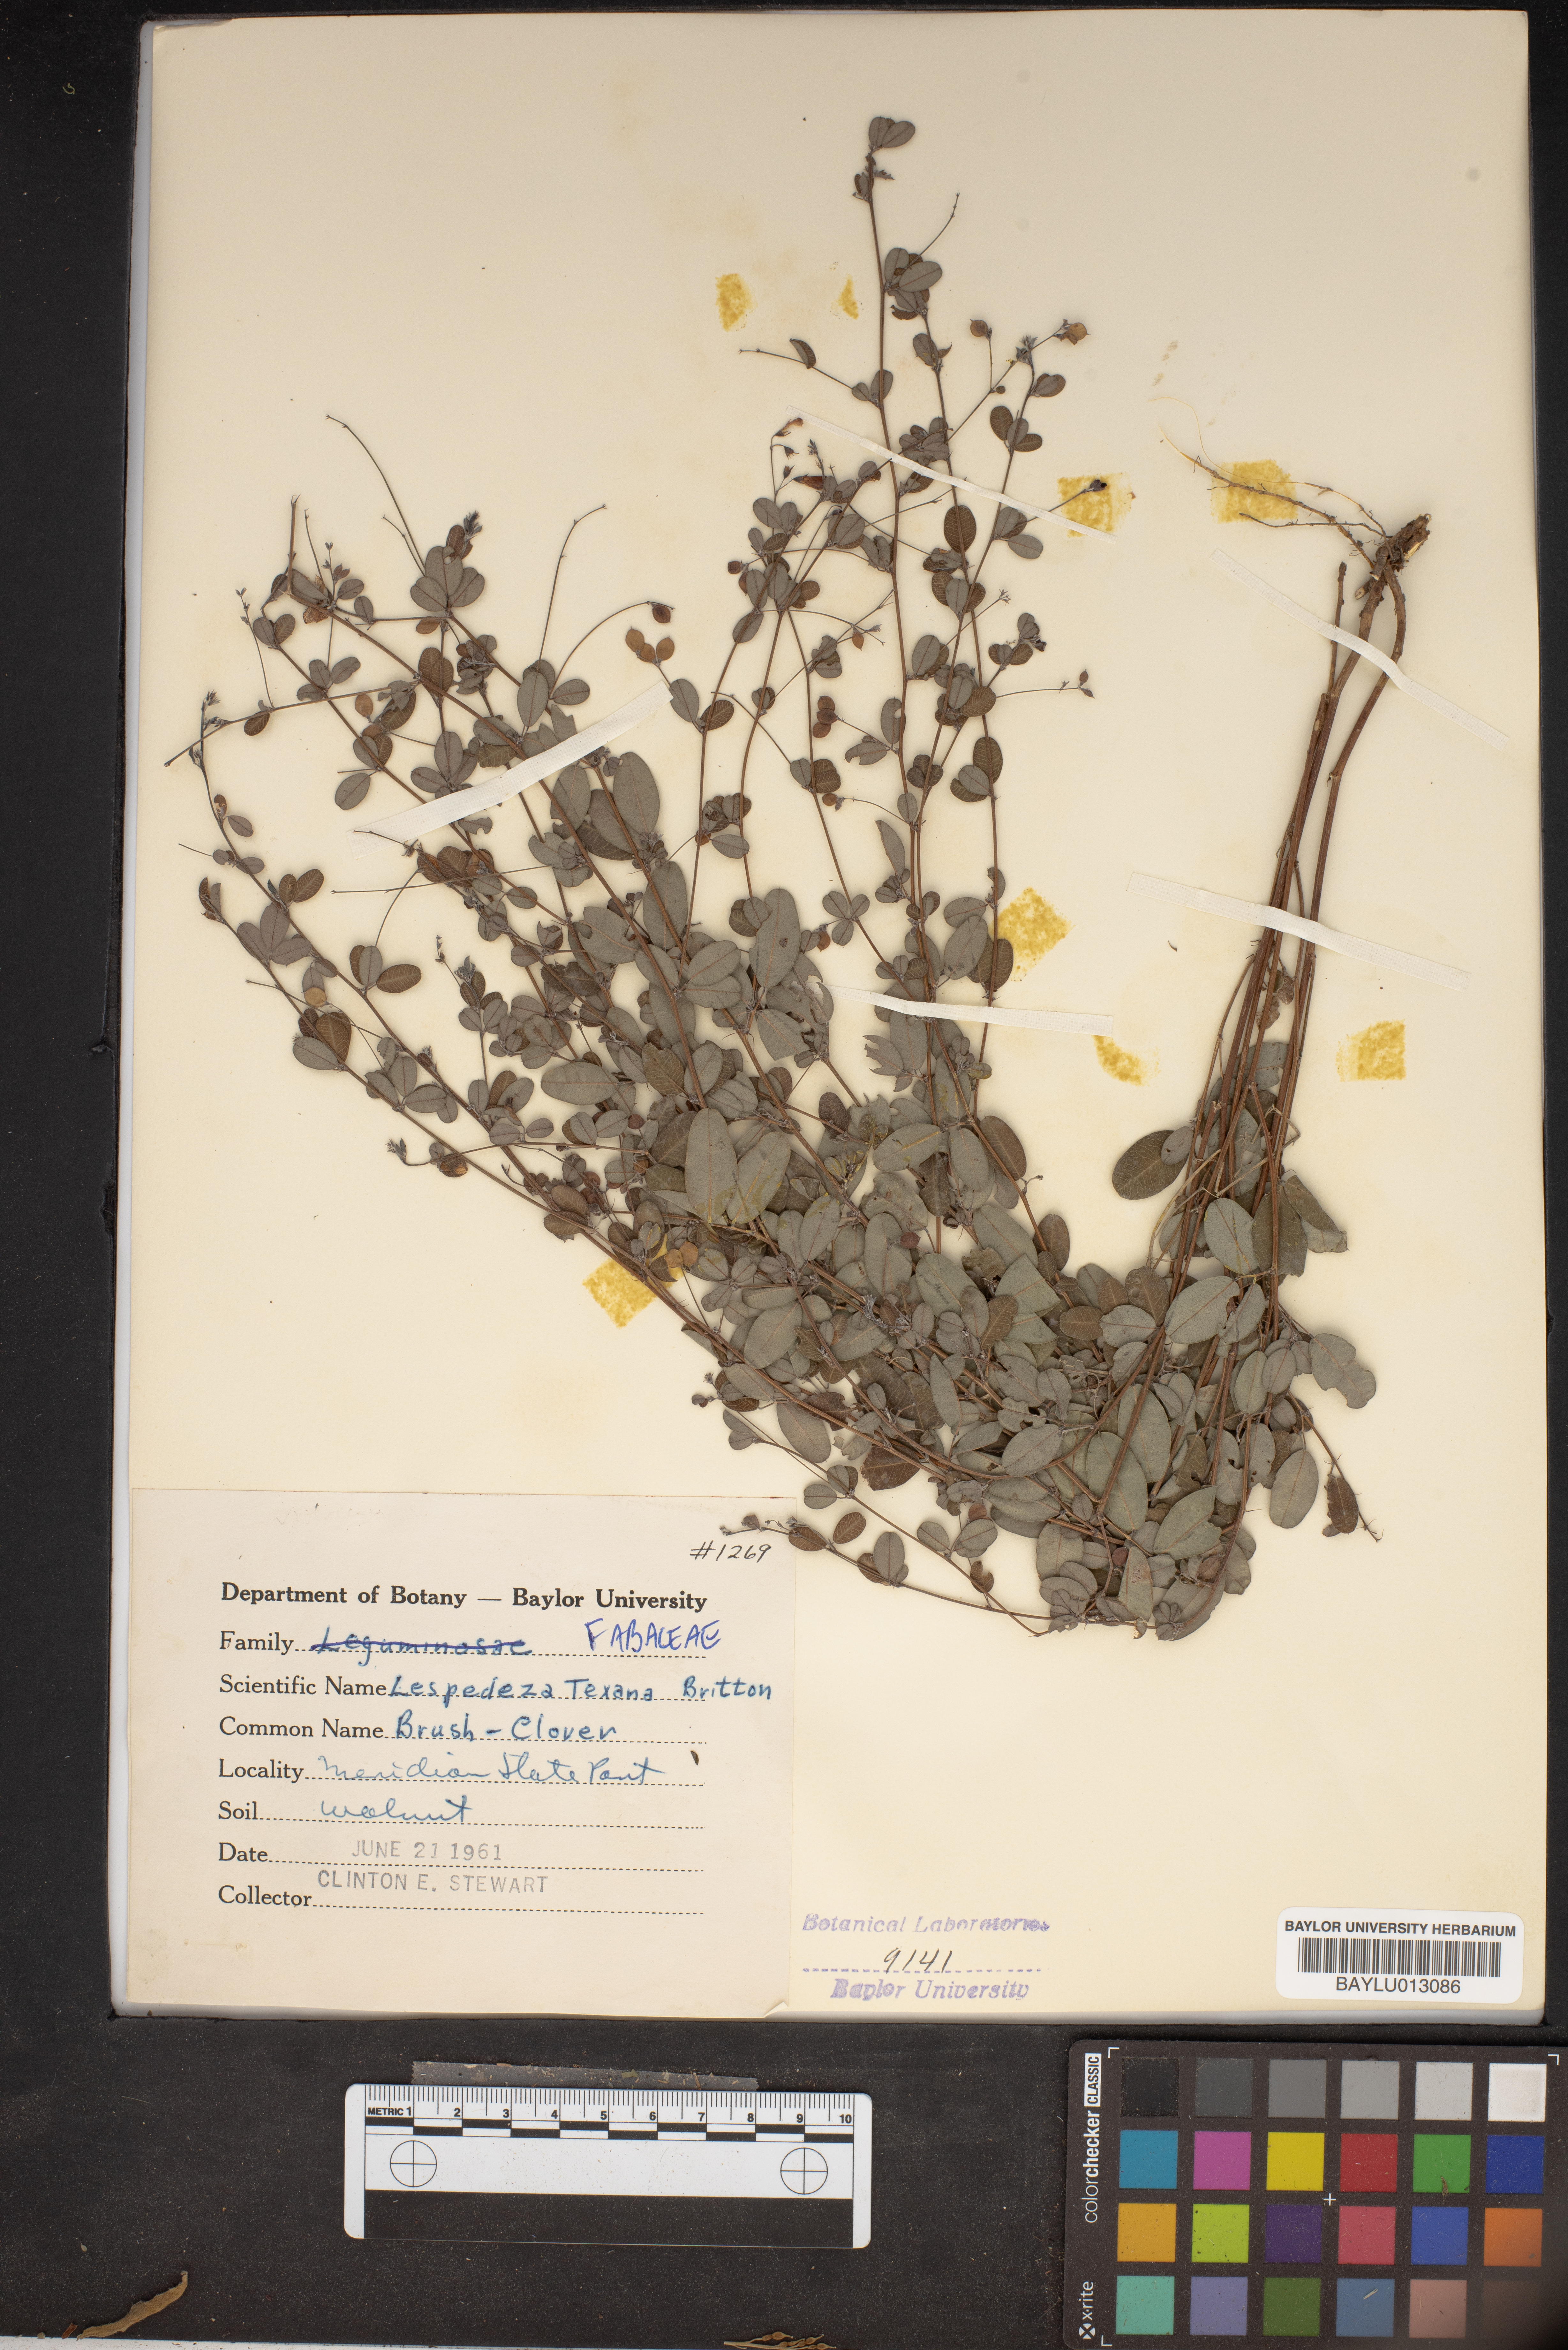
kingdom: Plantae
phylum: Tracheophyta
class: Magnoliopsida
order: Fabales
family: Fabaceae
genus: Lespedeza
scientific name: Lespedeza texana
